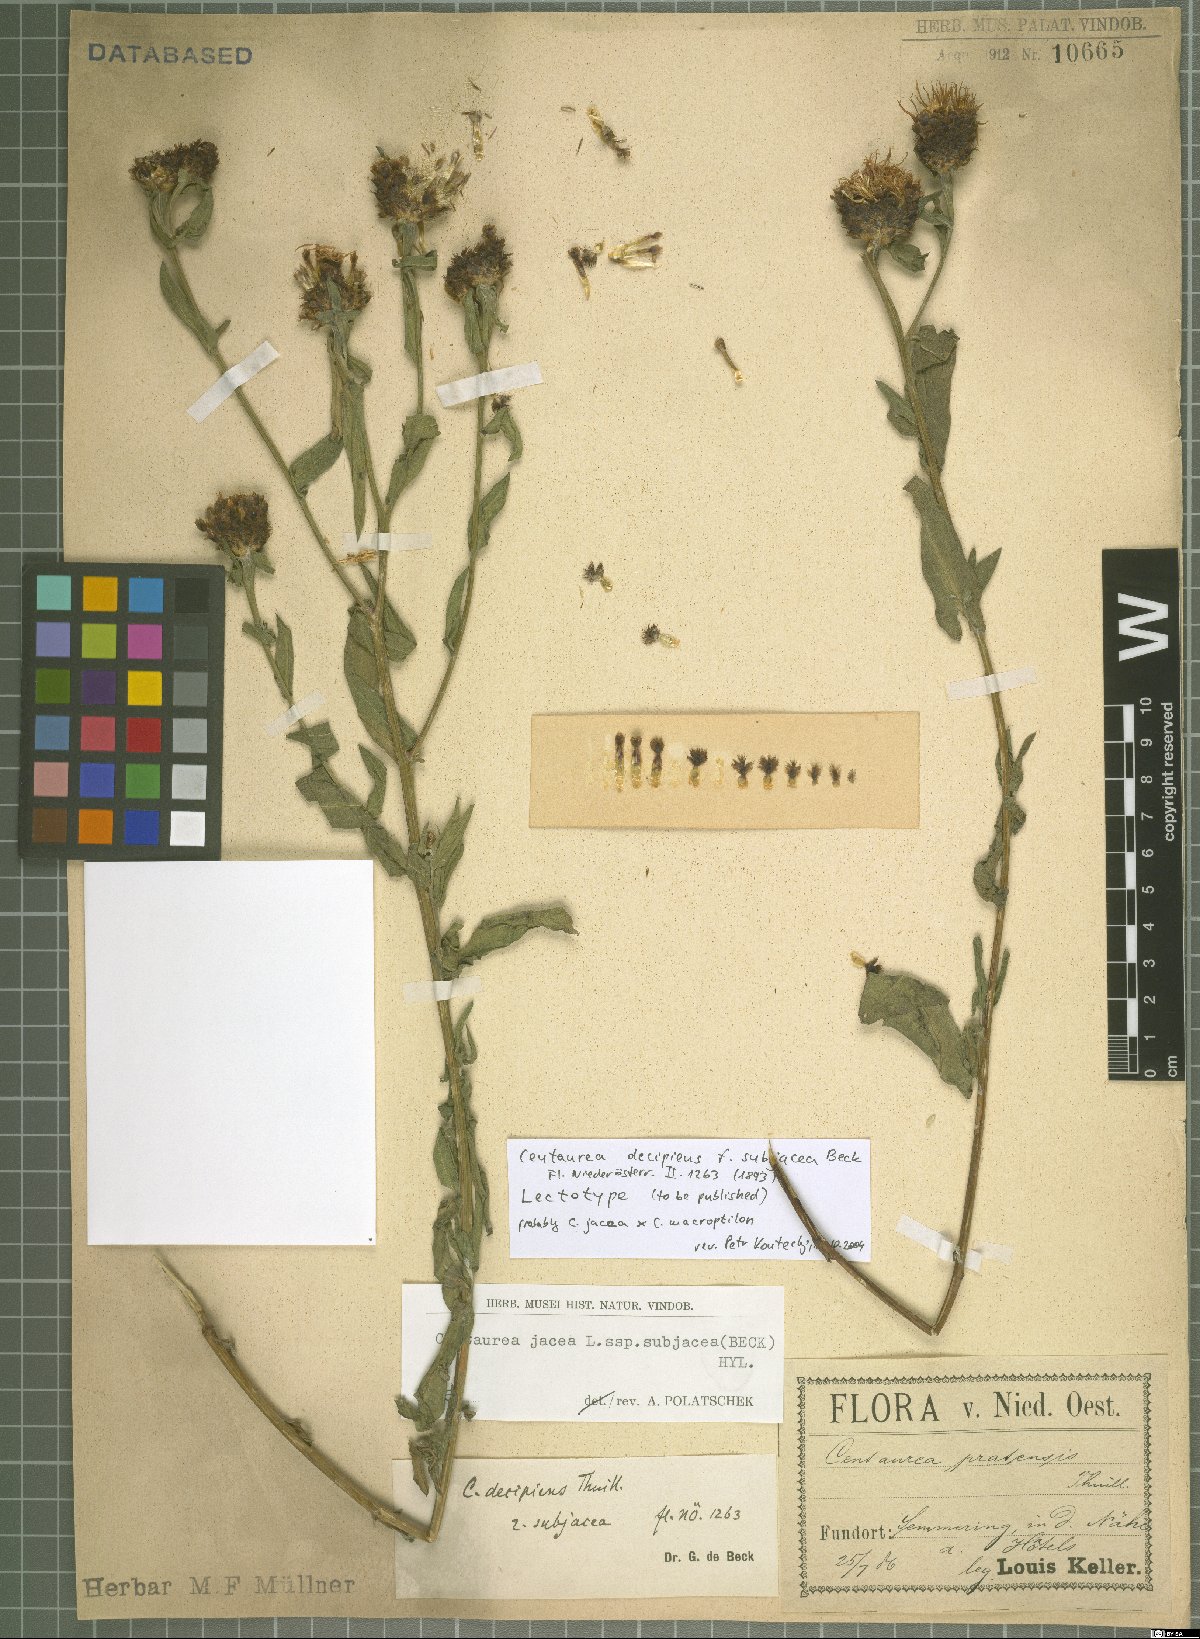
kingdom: Plantae
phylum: Tracheophyta
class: Magnoliopsida
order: Asterales
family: Asteraceae
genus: Centaurea
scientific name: Centaurea preissmannii
